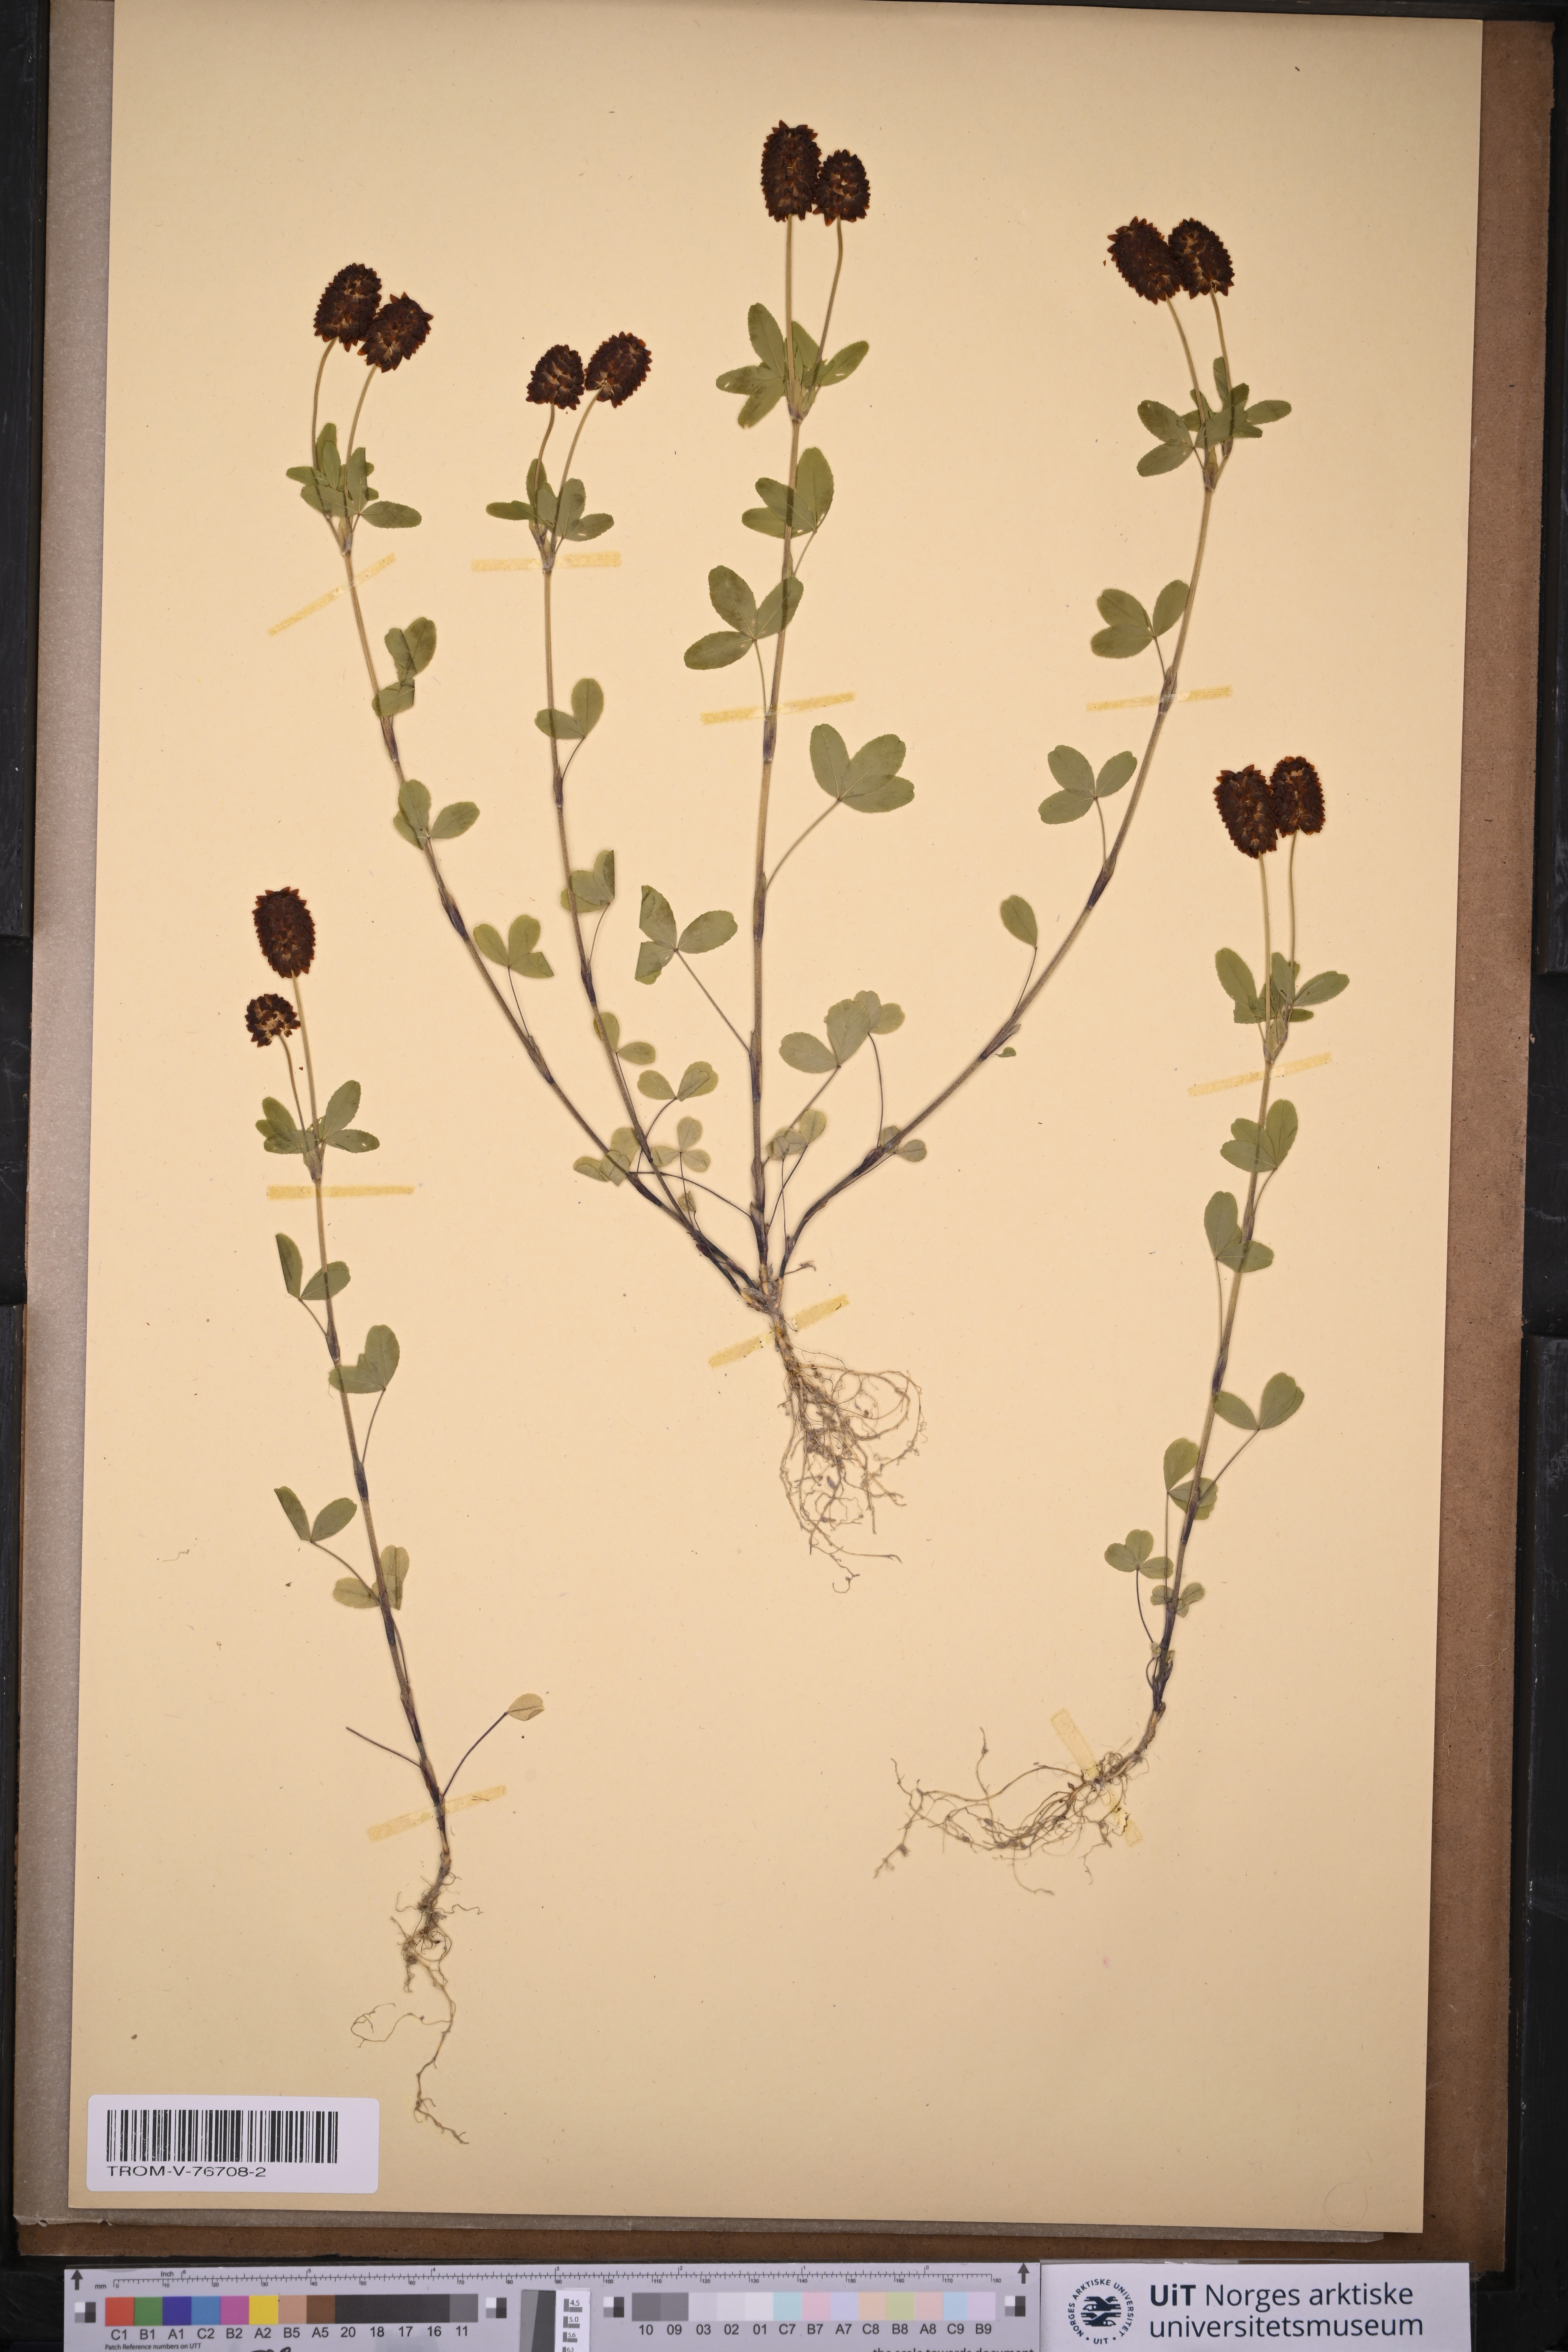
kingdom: Plantae
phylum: Tracheophyta
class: Magnoliopsida
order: Fabales
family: Fabaceae
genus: Trifolium
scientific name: Trifolium spadiceum
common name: Brown moor clover
